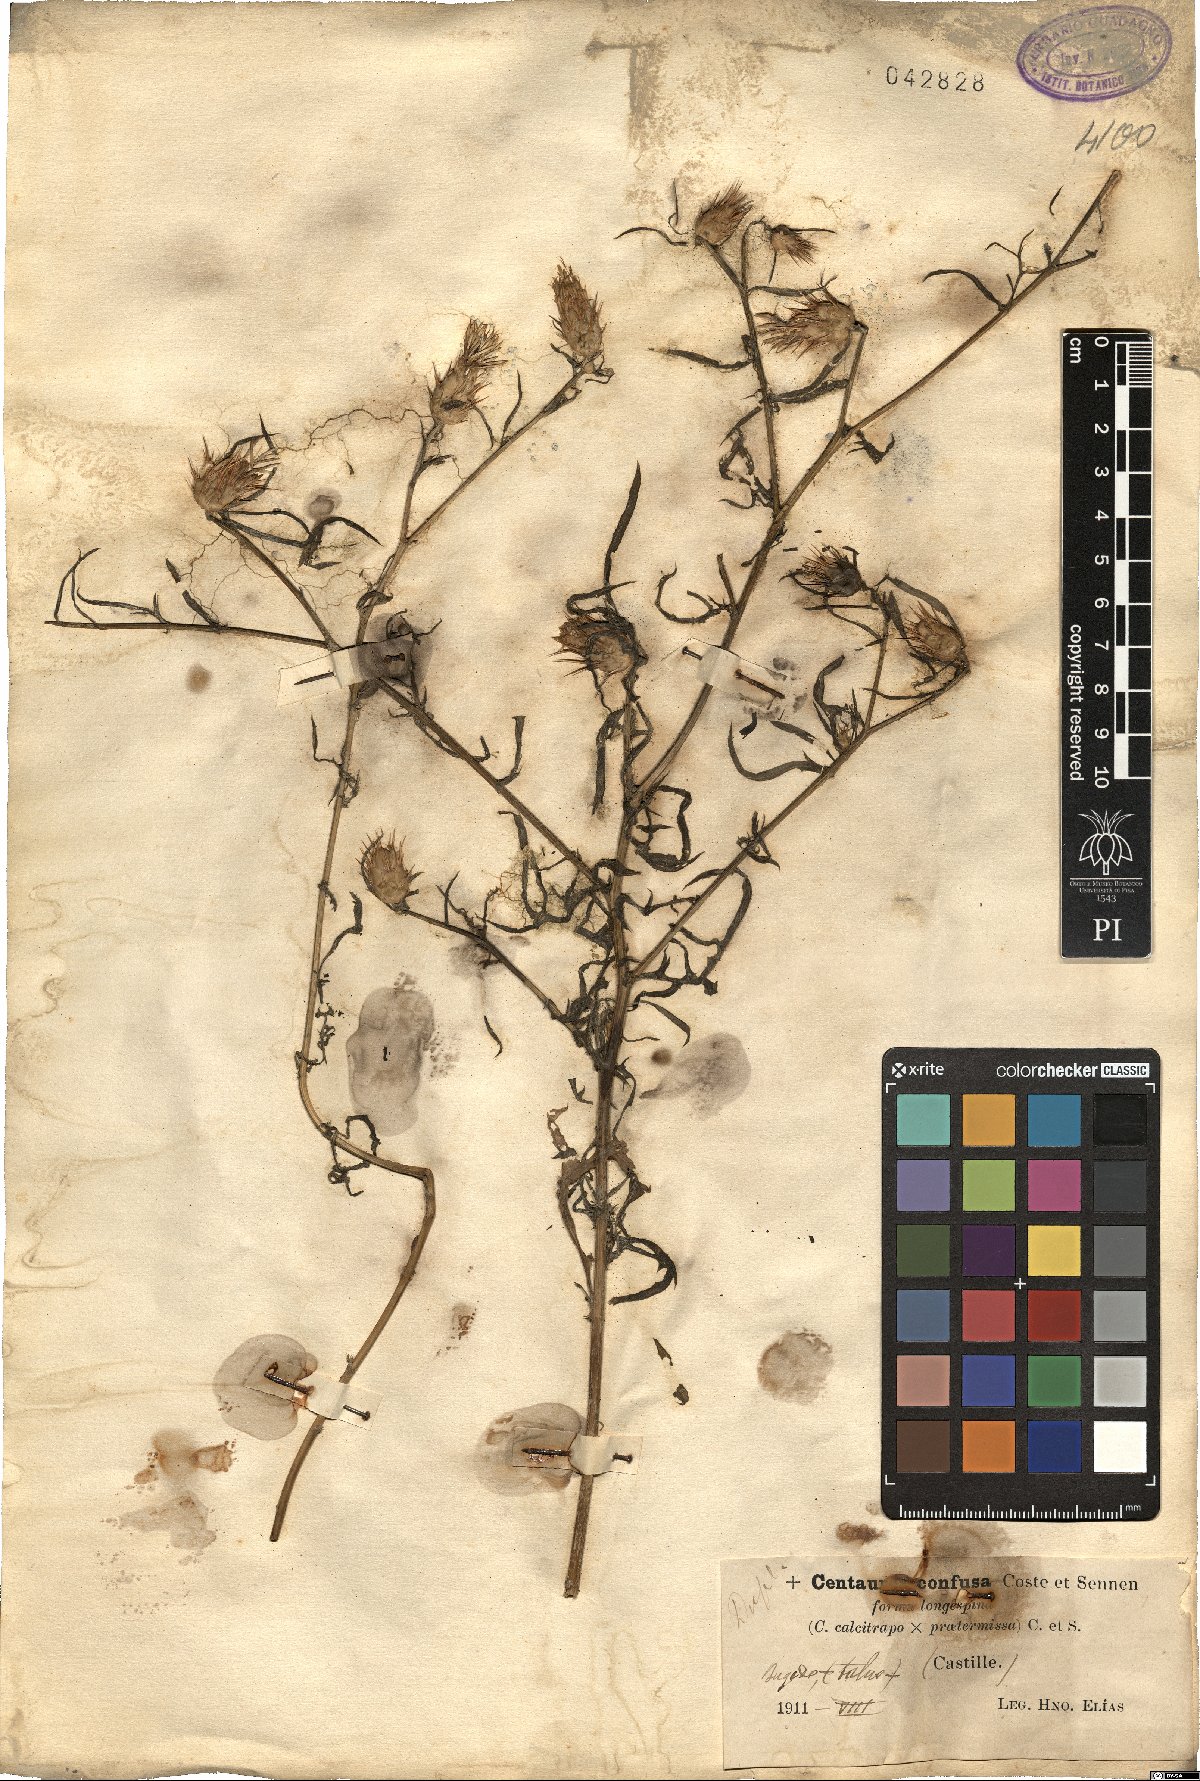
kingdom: Plantae
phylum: Tracheophyta
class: Magnoliopsida
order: Asterales
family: Asteraceae
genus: Centaurea
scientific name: Centaurea grisebachii
